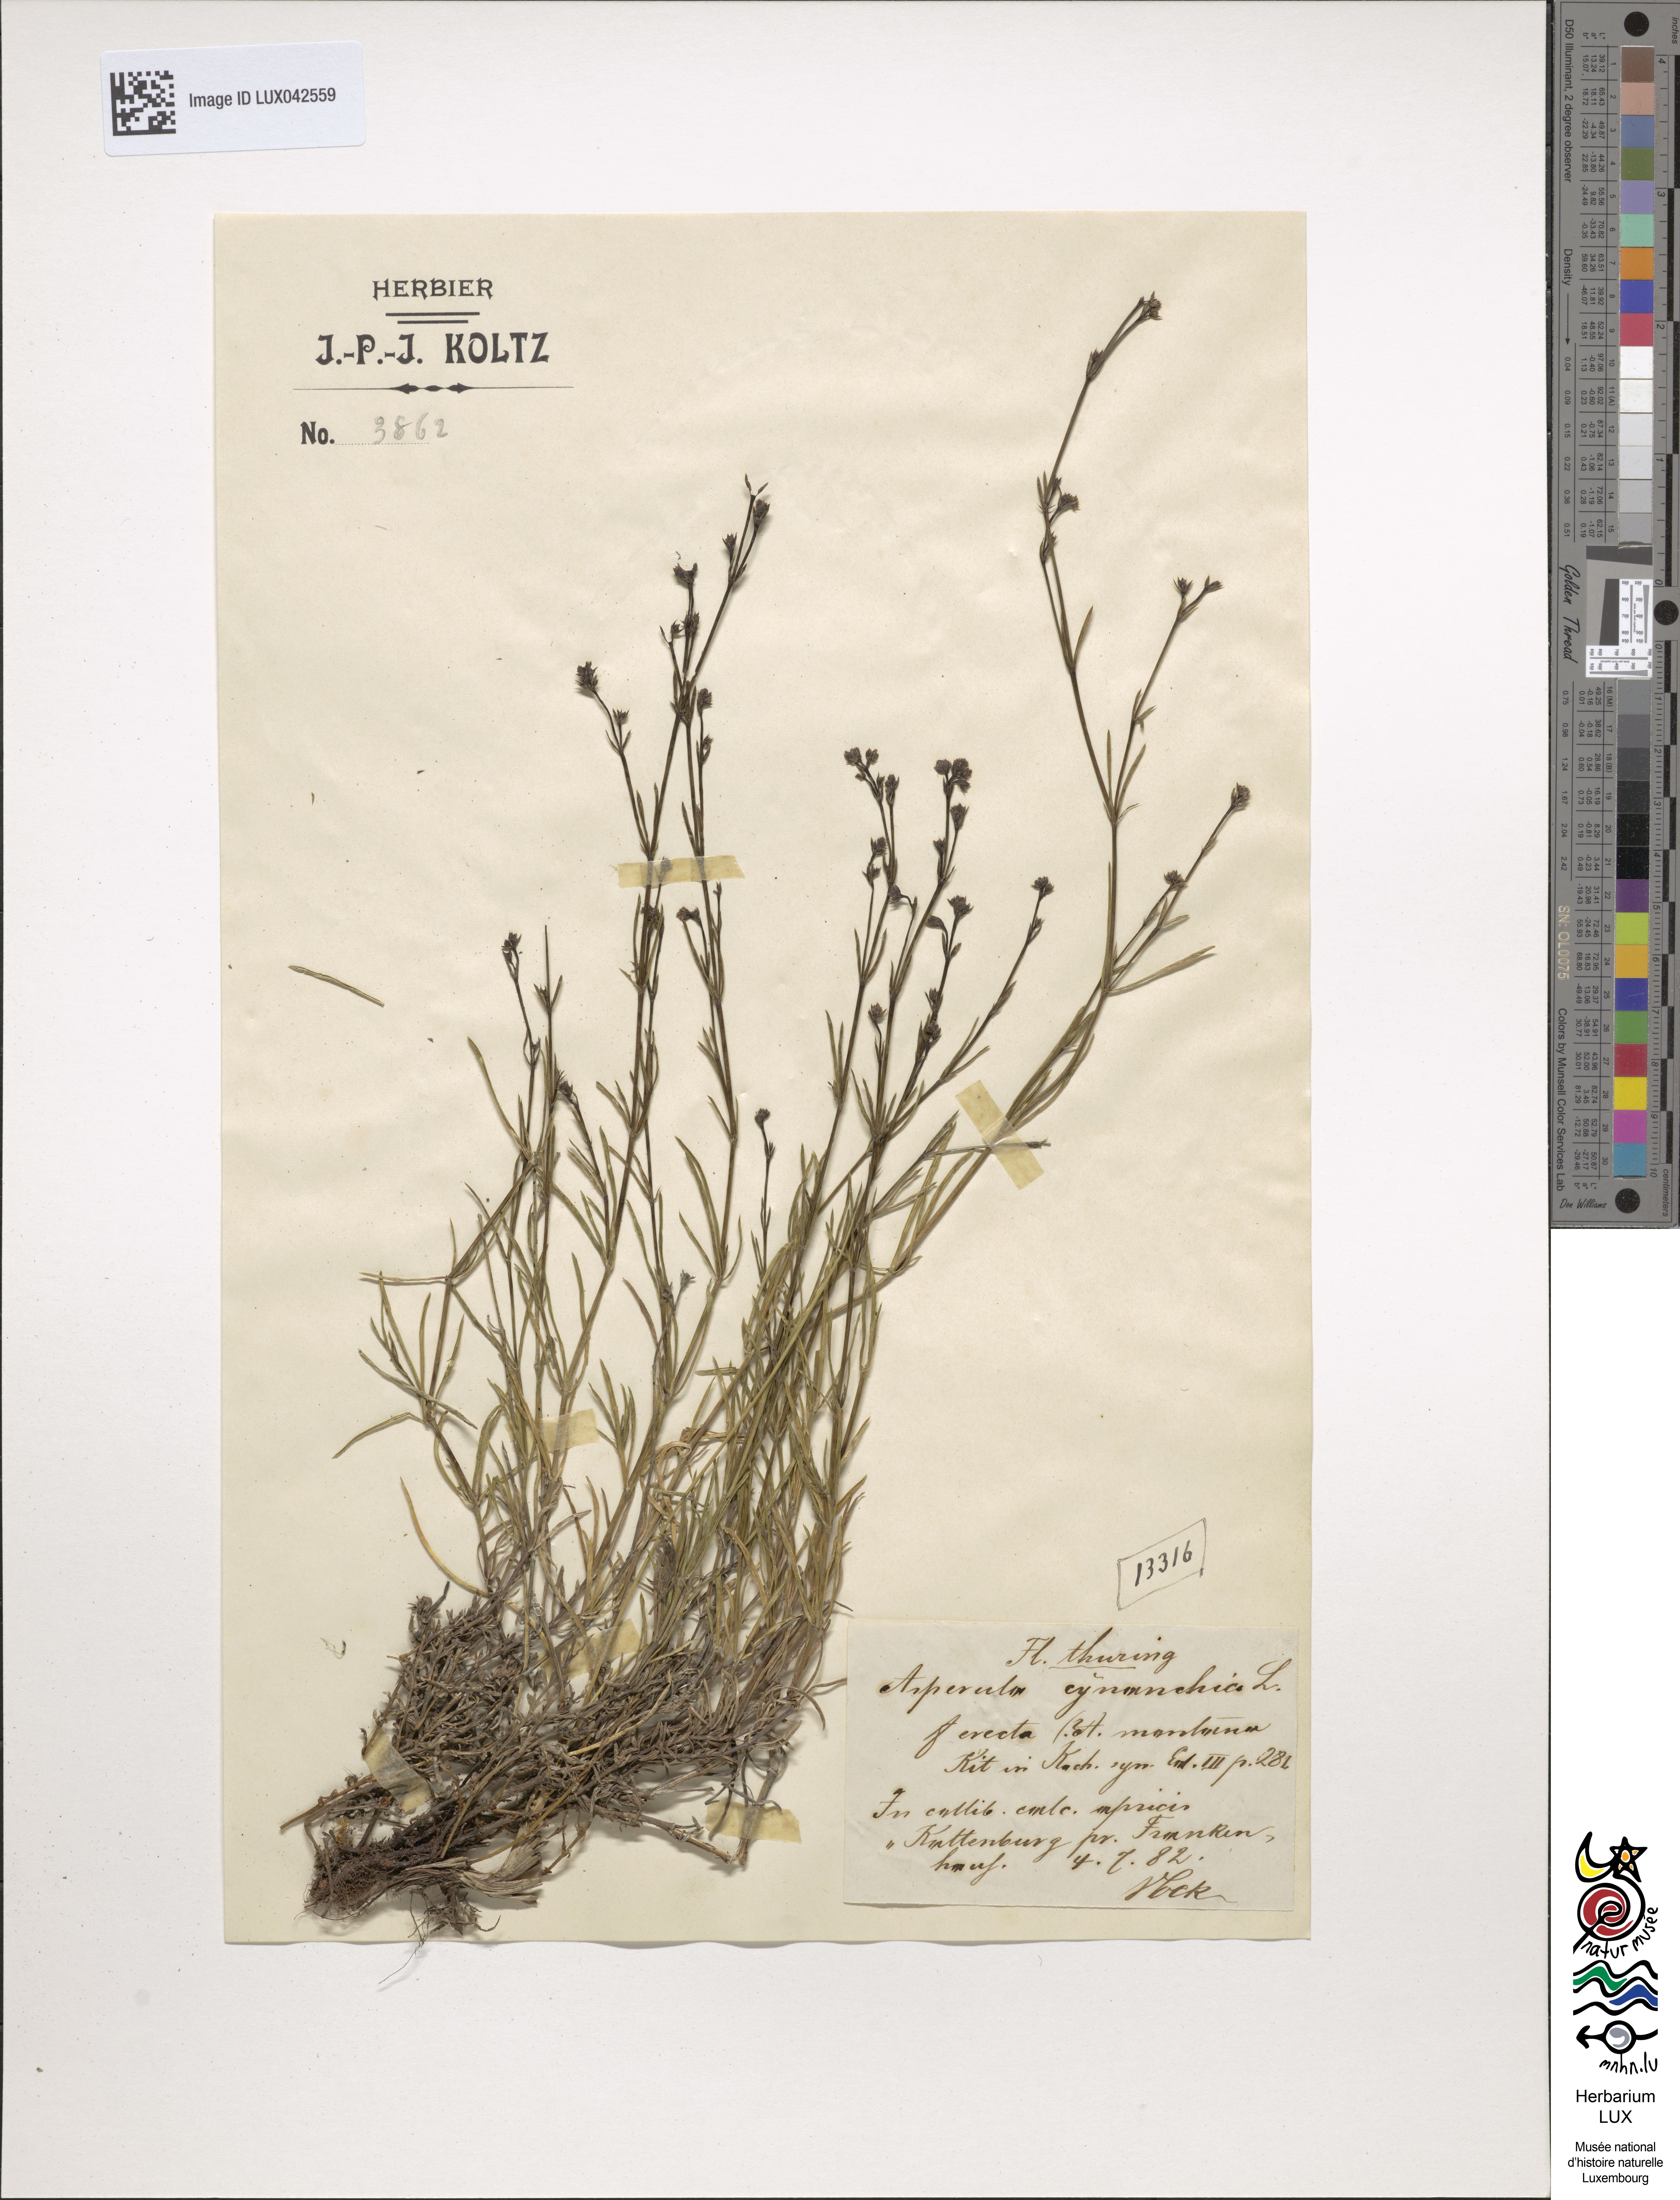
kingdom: Plantae
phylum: Tracheophyta
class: Magnoliopsida
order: Gentianales
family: Rubiaceae
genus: Cynanchica
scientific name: Cynanchica pyrenaica
